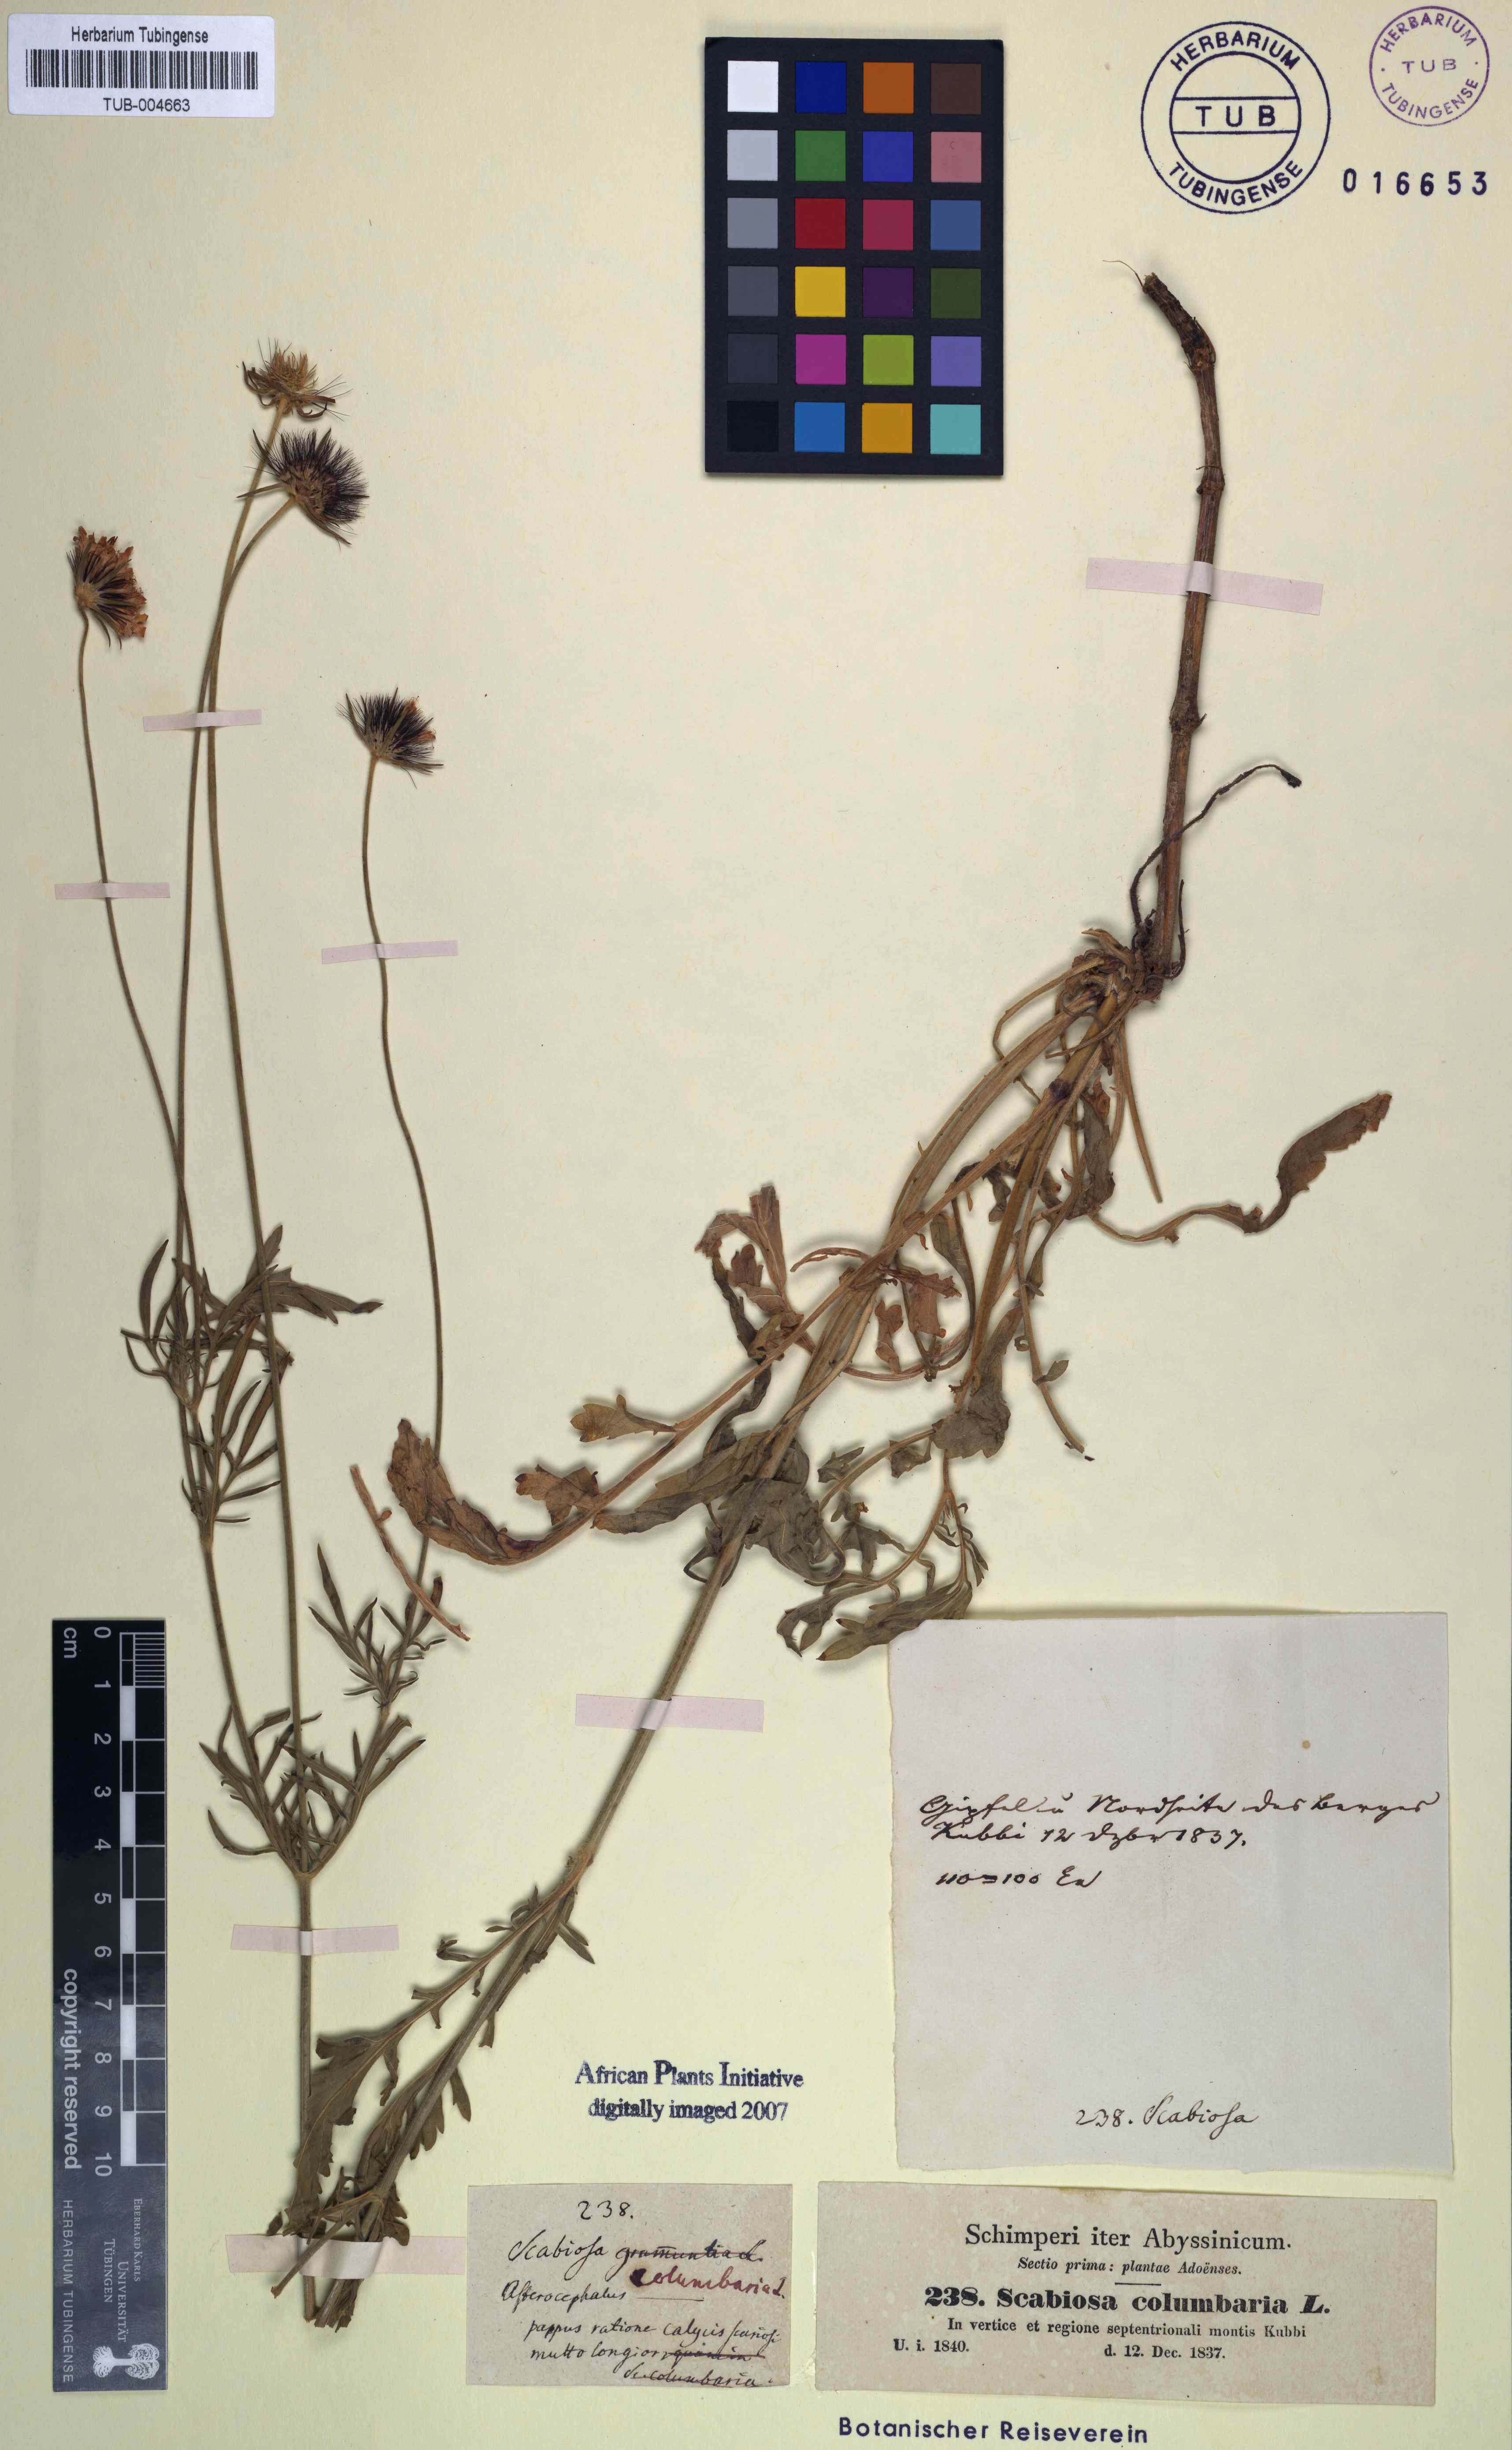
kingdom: Plantae
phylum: Tracheophyta
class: Magnoliopsida
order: Dipsacales
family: Caprifoliaceae
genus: Scabiosa
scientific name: Scabiosa columbaria
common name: Small scabious
